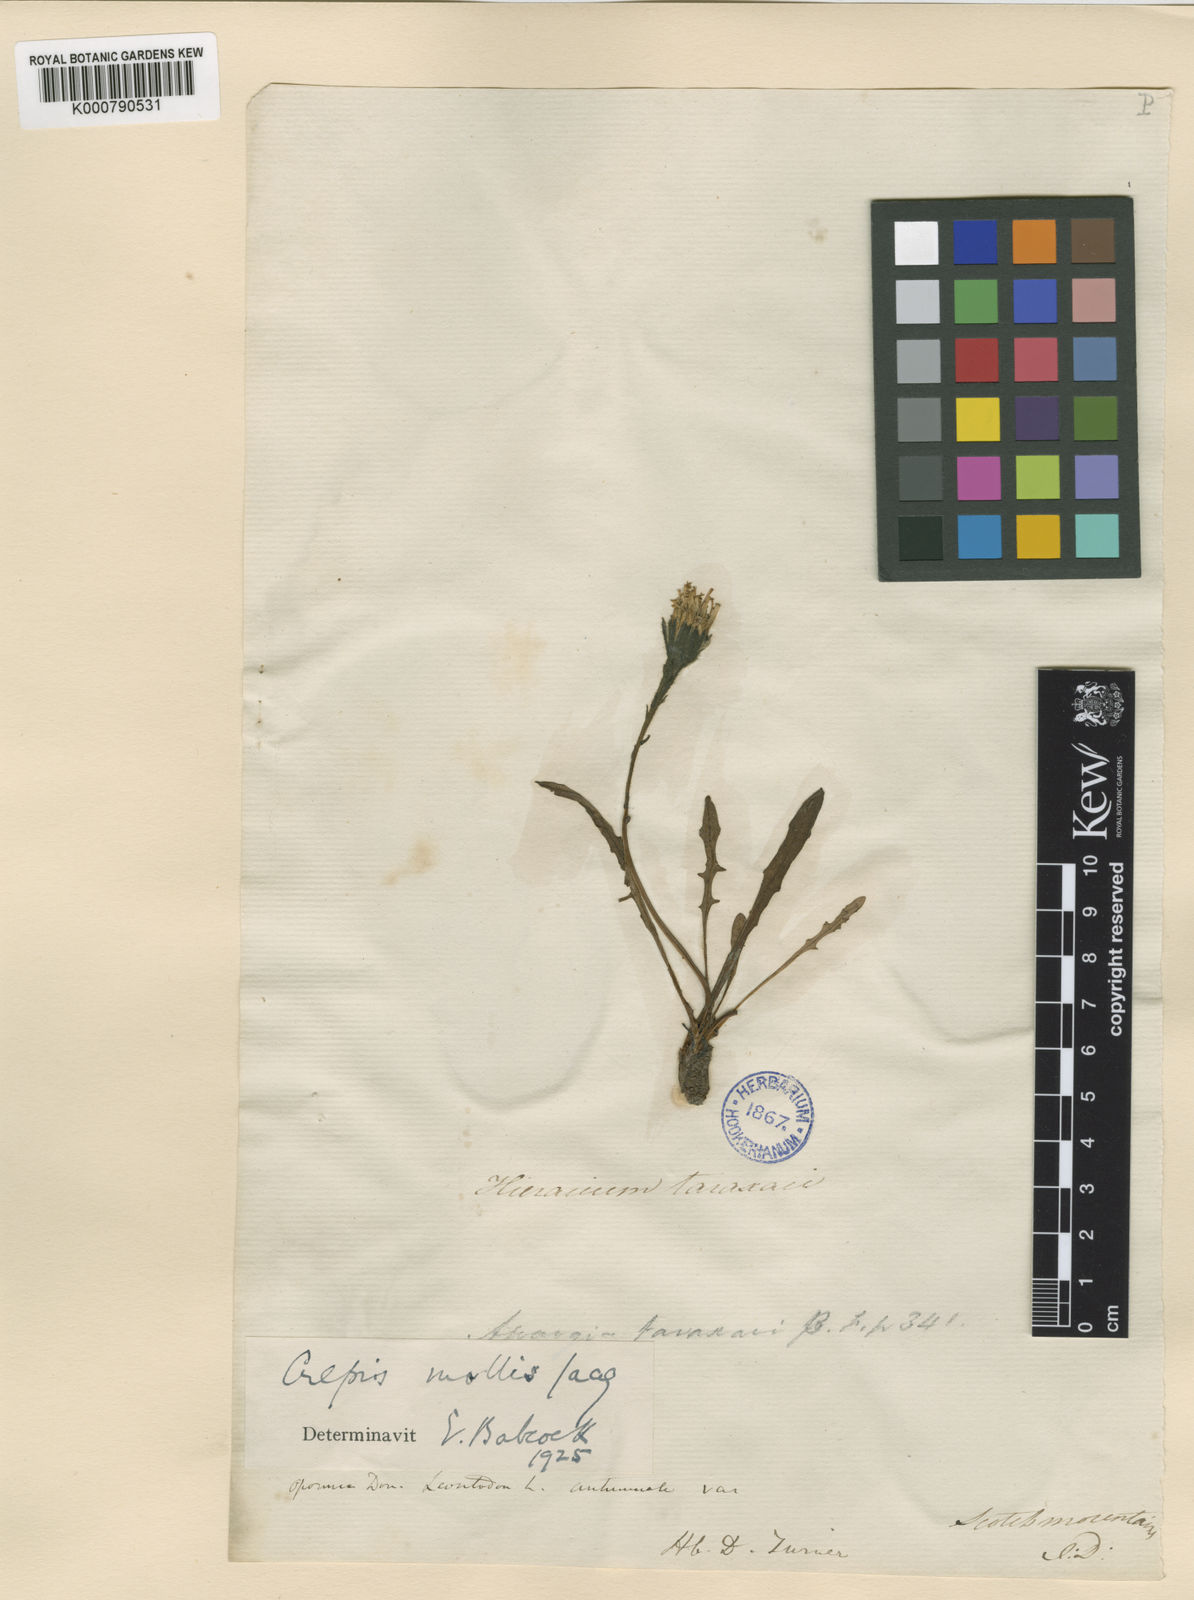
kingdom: Plantae
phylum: Tracheophyta
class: Magnoliopsida
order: Asterales
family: Asteraceae
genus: Crepis
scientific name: Crepis mollis
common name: Northern hawk's-beard
